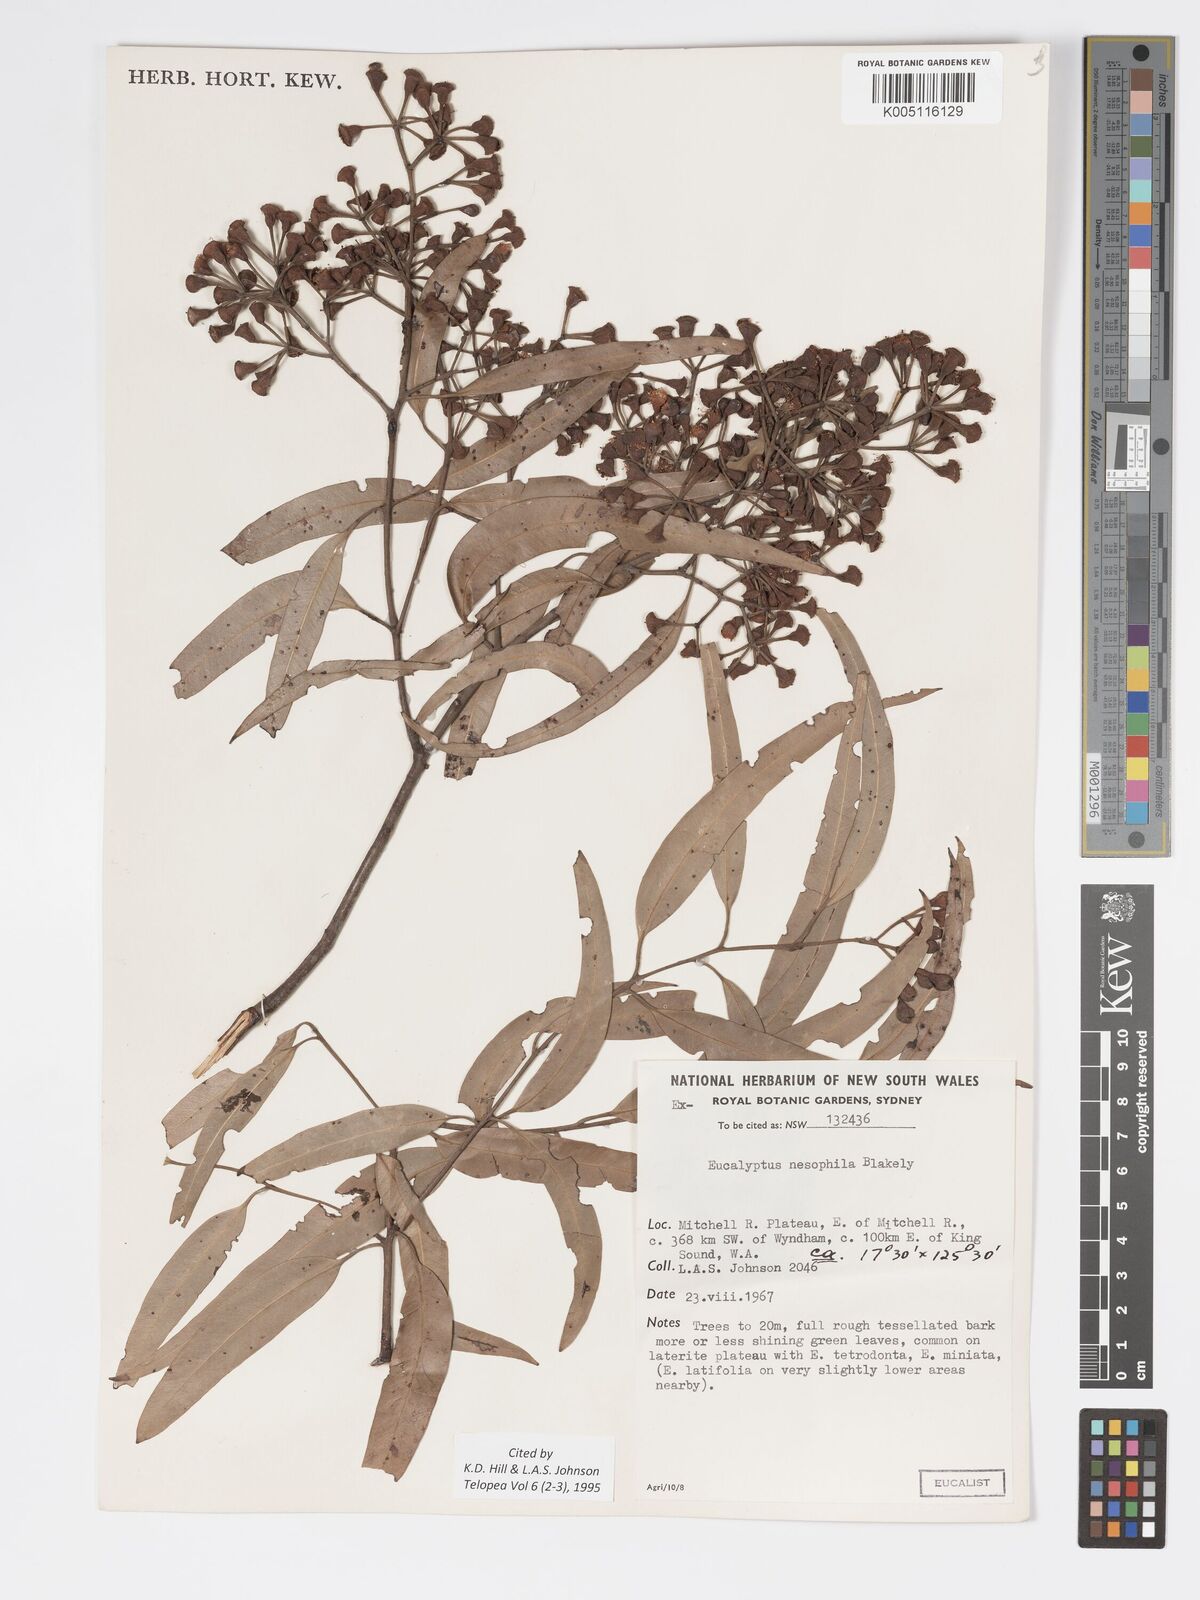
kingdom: Plantae
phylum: Tracheophyta
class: Magnoliopsida
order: Myrtales
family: Myrtaceae
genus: Corymbia
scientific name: Corymbia nesophila
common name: Melville-island-bloodwood
